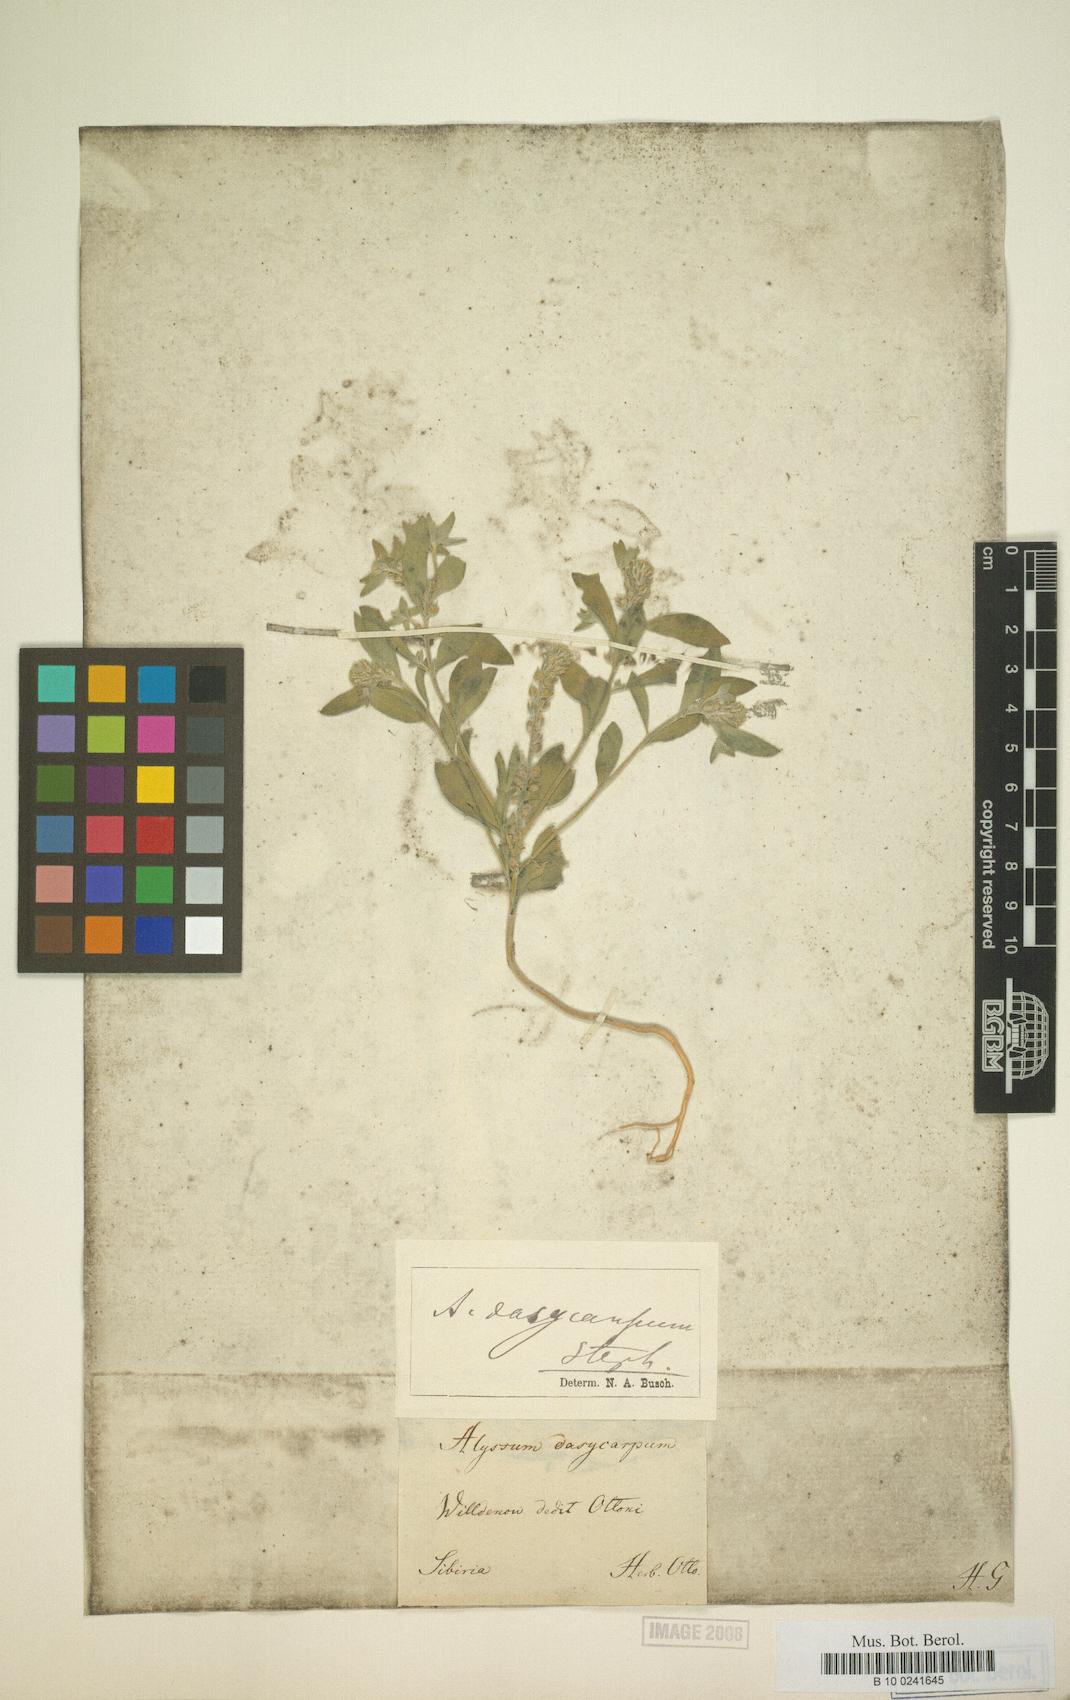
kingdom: Plantae
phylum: Tracheophyta
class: Magnoliopsida
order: Brassicales
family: Brassicaceae
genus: Alyssum
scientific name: Alyssum dasycarpum
